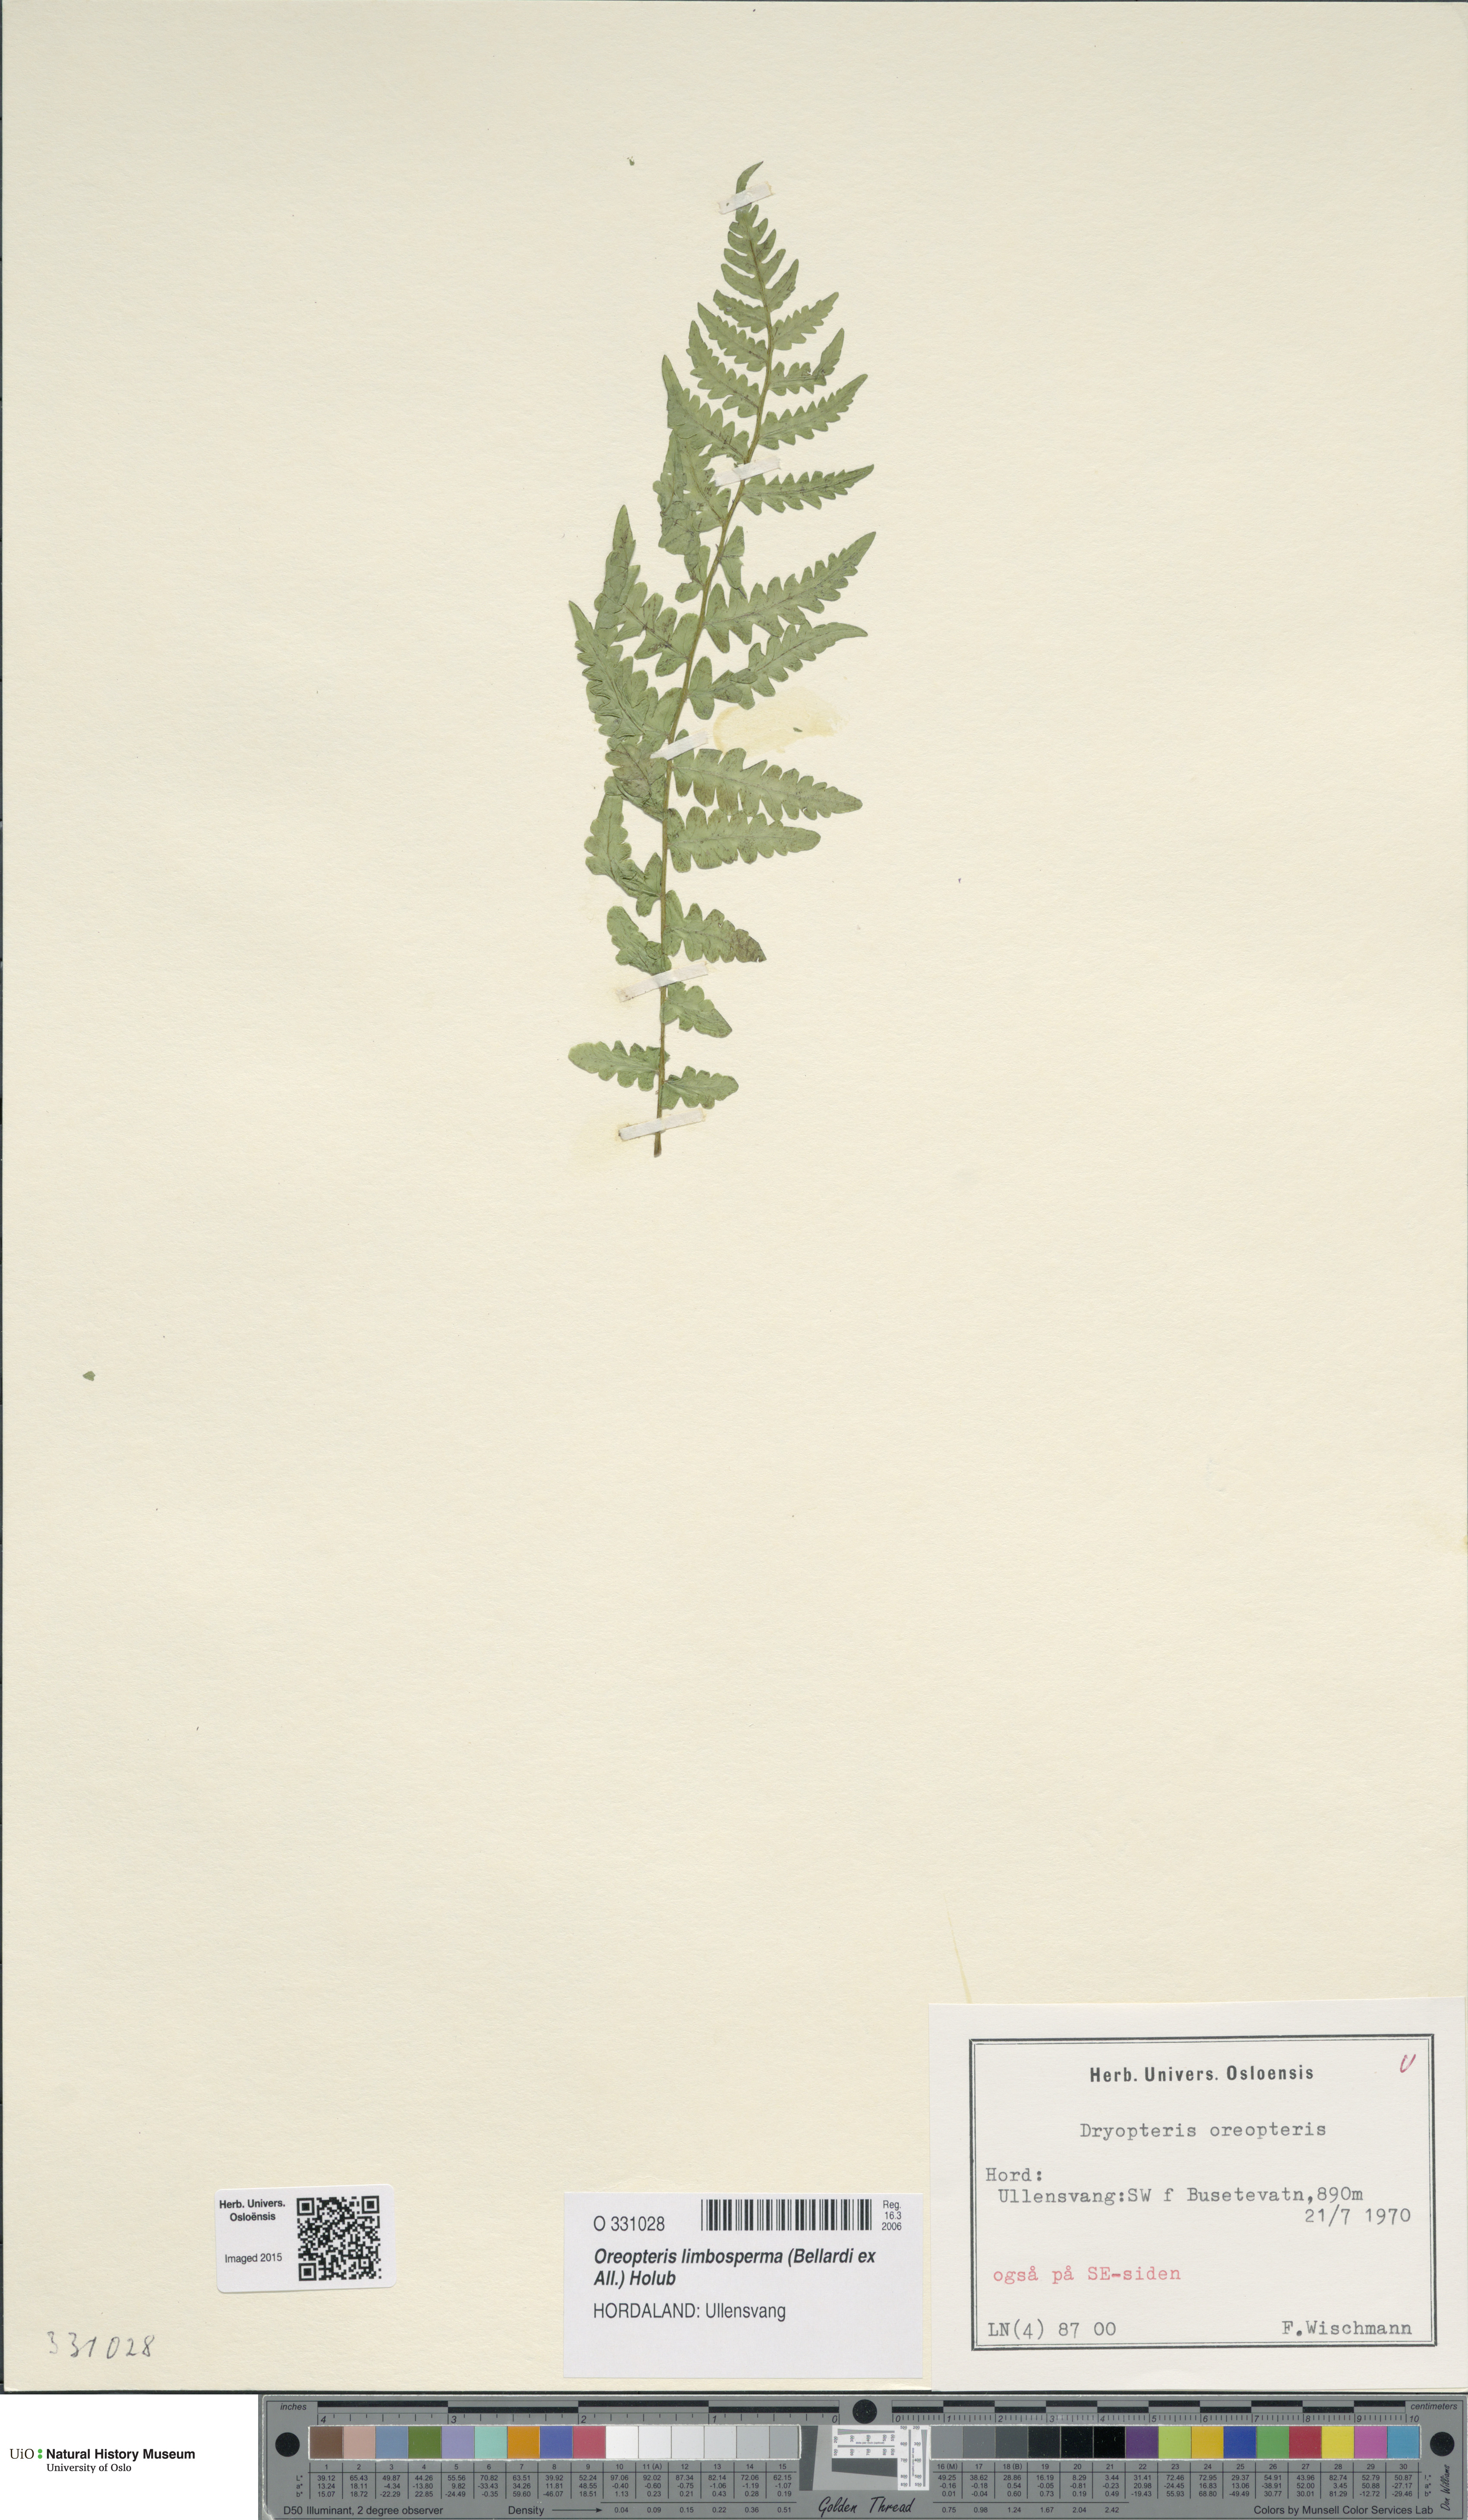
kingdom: Plantae
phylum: Tracheophyta
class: Polypodiopsida
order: Polypodiales
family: Thelypteridaceae
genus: Oreopteris
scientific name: Oreopteris limbosperma
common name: Lemon-scented fern
